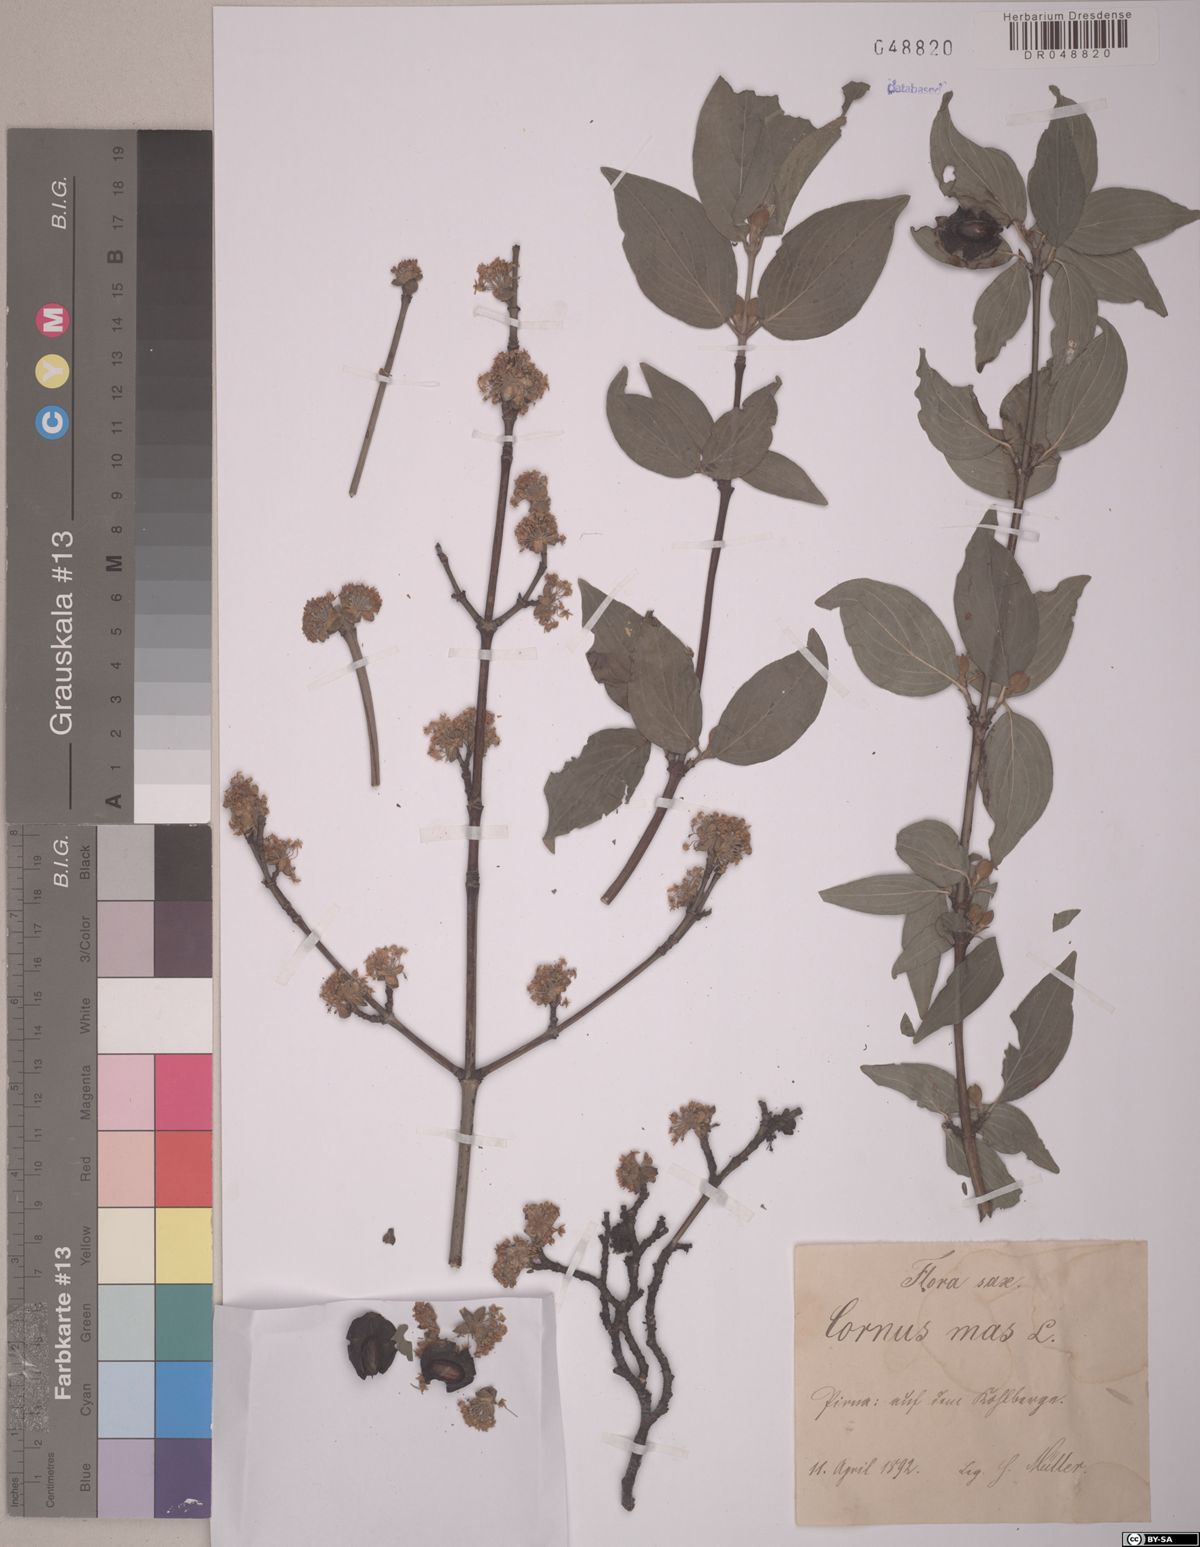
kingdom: Plantae
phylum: Tracheophyta
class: Magnoliopsida
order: Cornales
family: Cornaceae
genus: Cornus
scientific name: Cornus mas
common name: Cornelian-cherry
